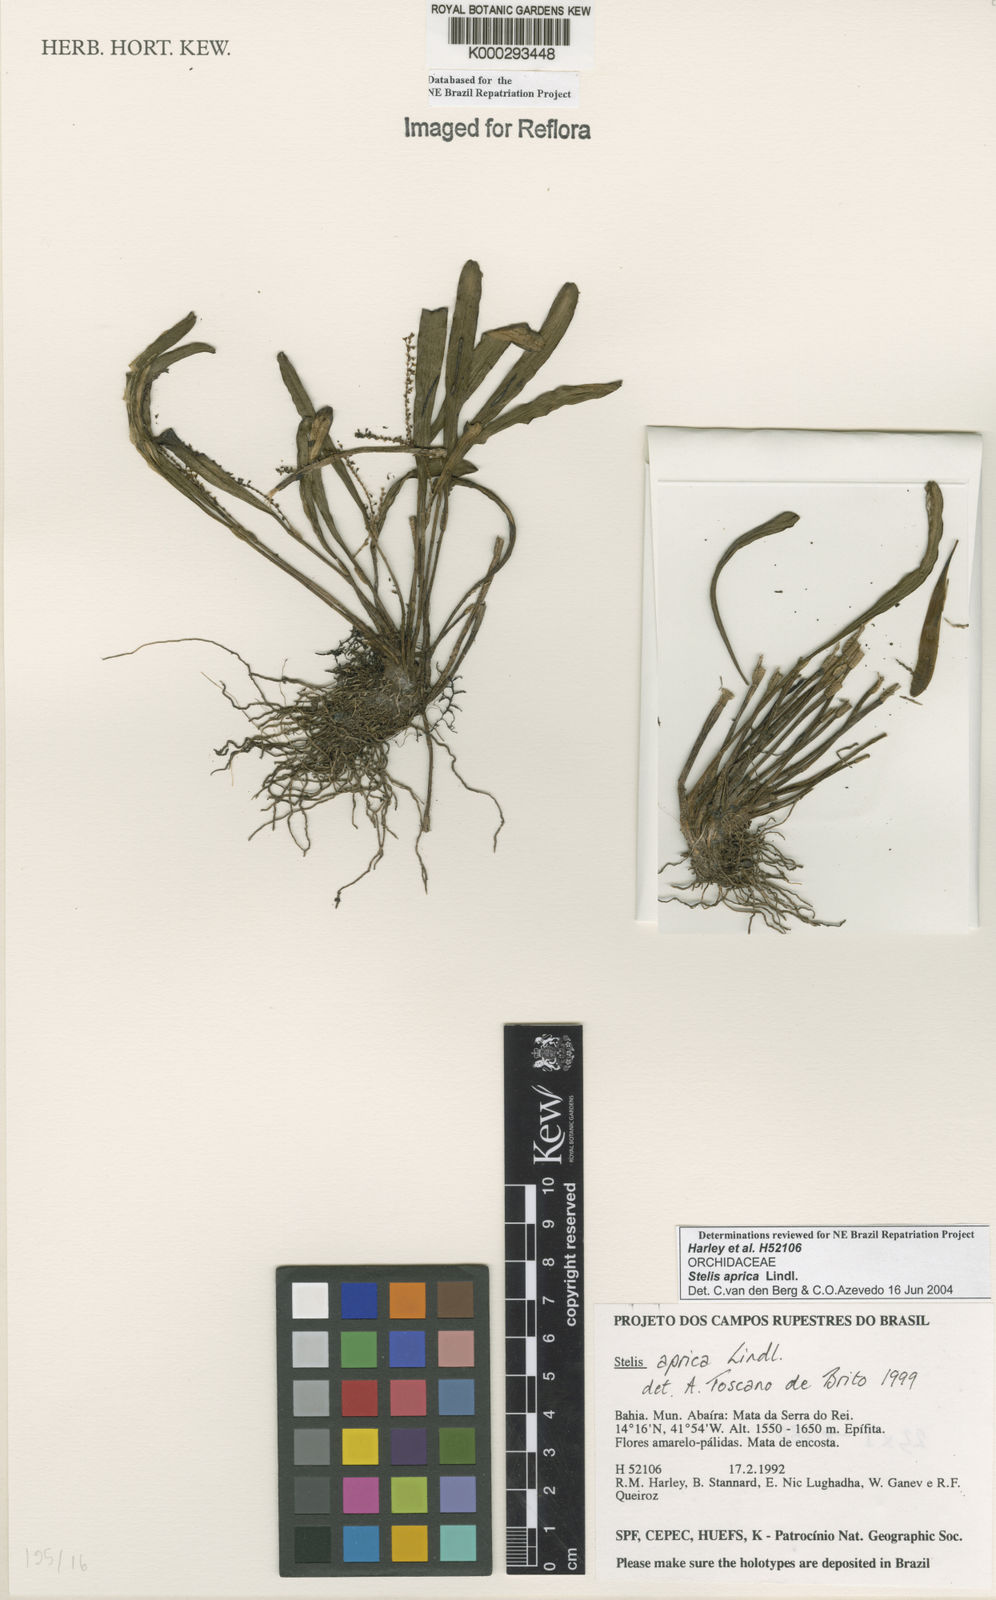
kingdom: Plantae
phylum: Tracheophyta
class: Liliopsida
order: Asparagales
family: Orchidaceae
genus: Stelis
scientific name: Stelis aprica
